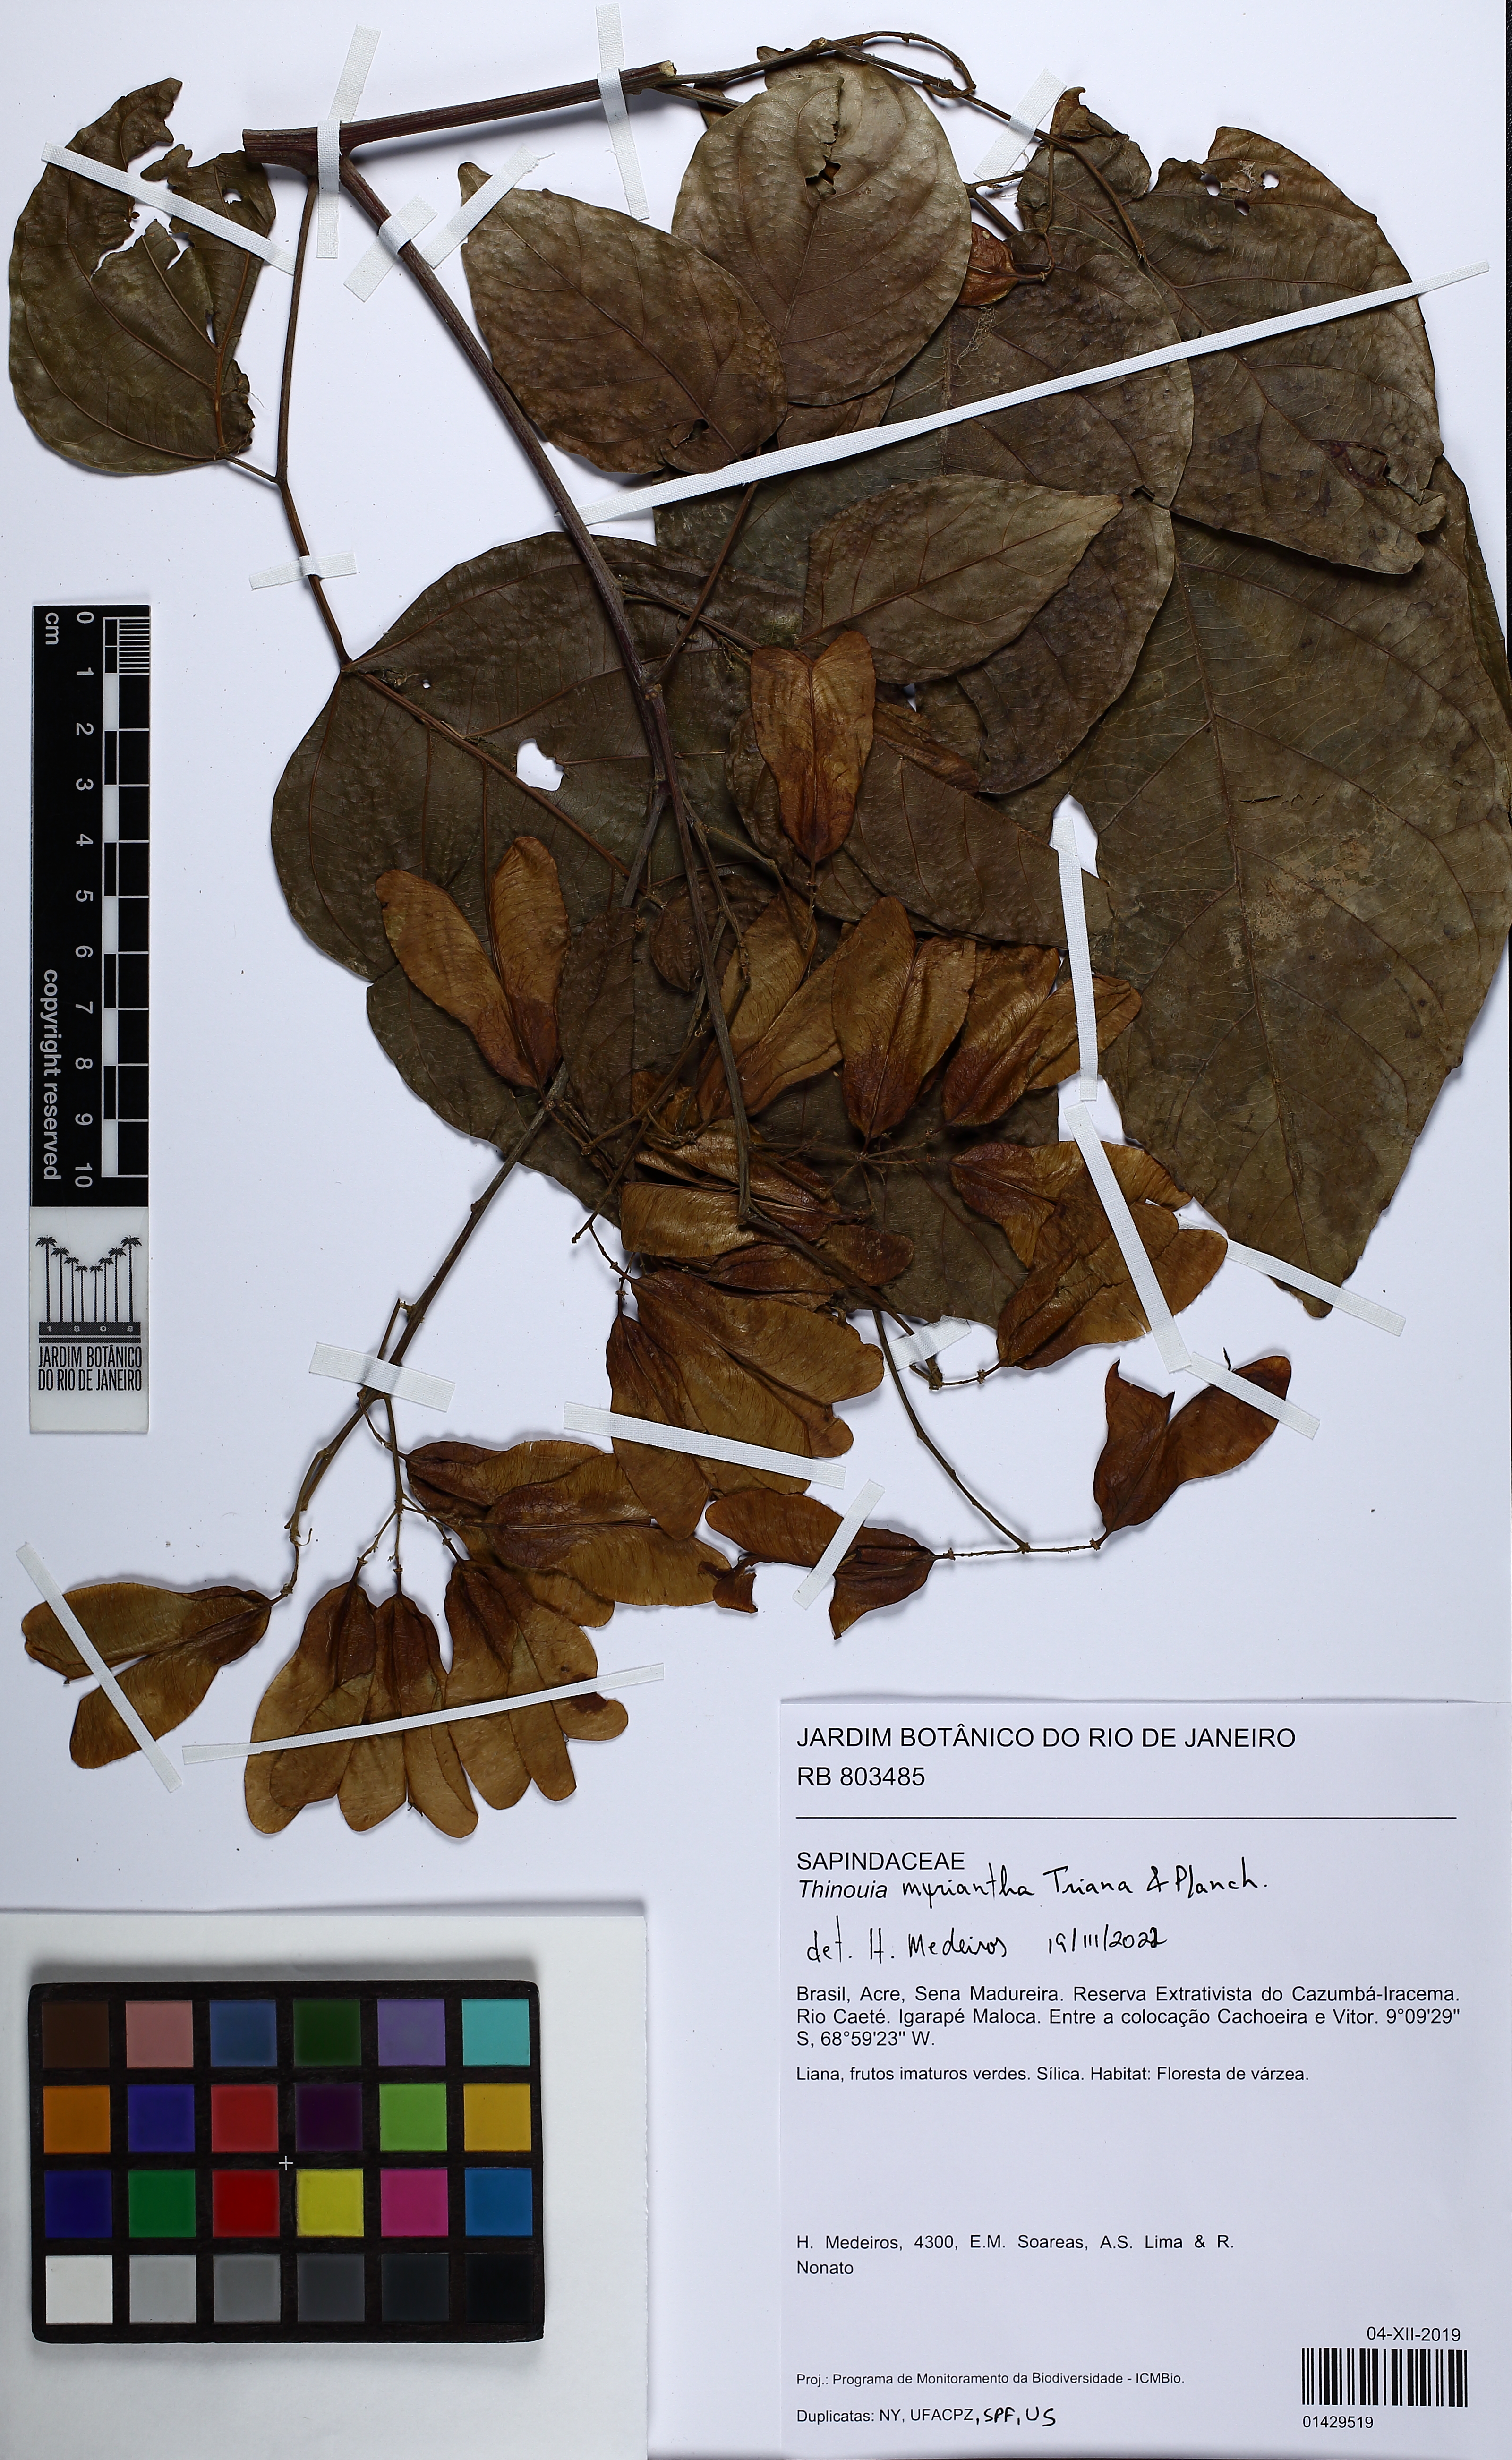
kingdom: Plantae
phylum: Tracheophyta
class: Magnoliopsida
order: Sapindales
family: Sapindaceae
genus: Thinouia
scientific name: Thinouia
